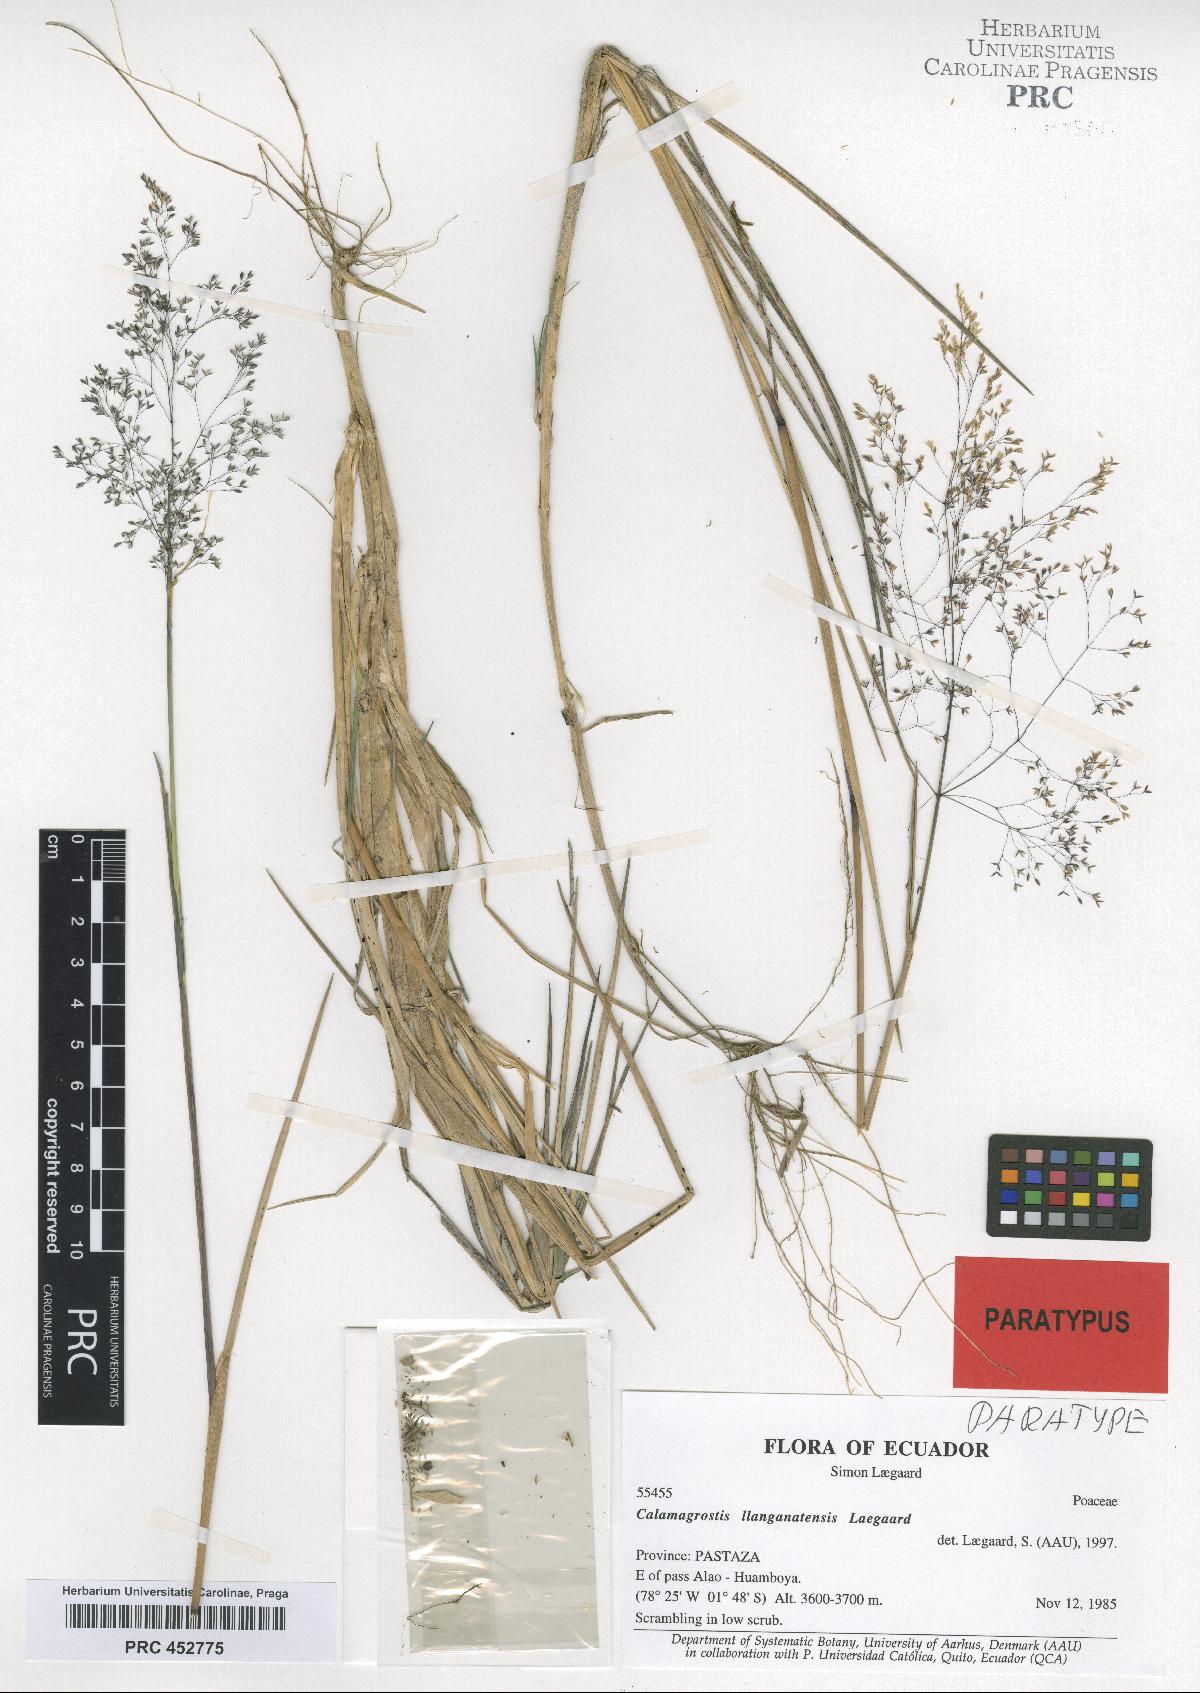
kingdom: Plantae
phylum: Tracheophyta
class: Liliopsida
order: Poales
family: Poaceae
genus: Calamagrostis
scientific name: Calamagrostis llanganatensis
